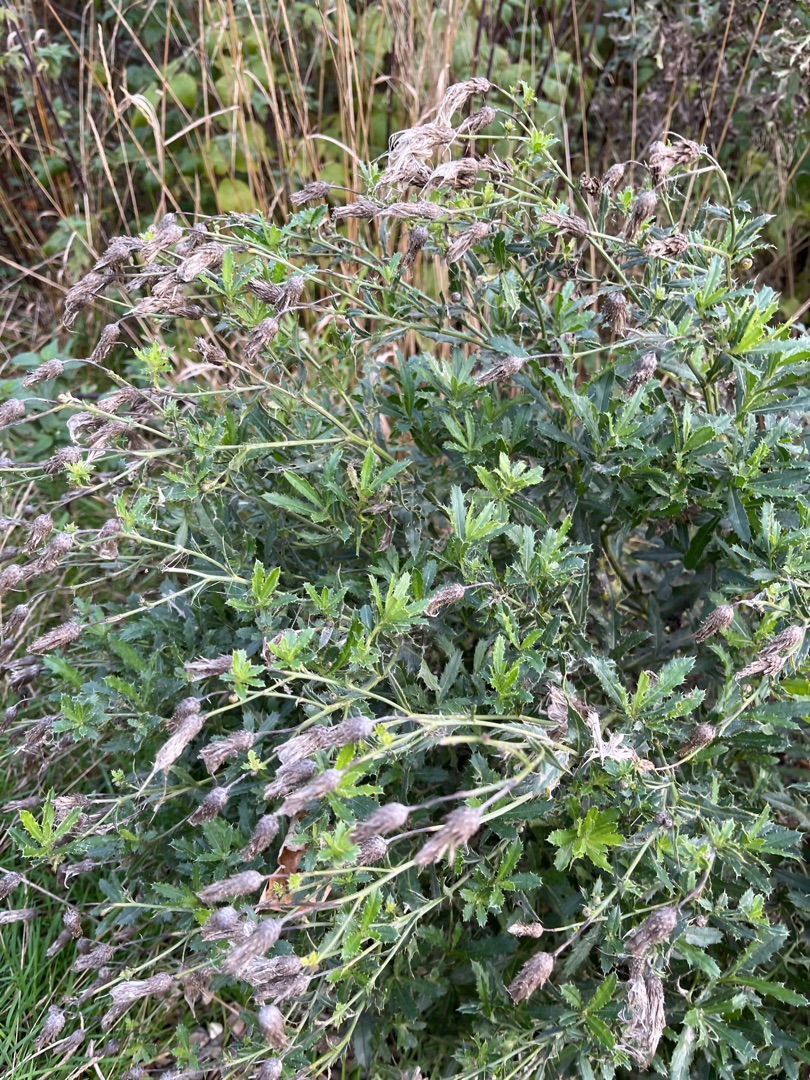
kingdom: Plantae
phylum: Tracheophyta
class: Magnoliopsida
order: Asterales
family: Asteraceae
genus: Cirsium
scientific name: Cirsium arvense
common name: Ager-tidsel
